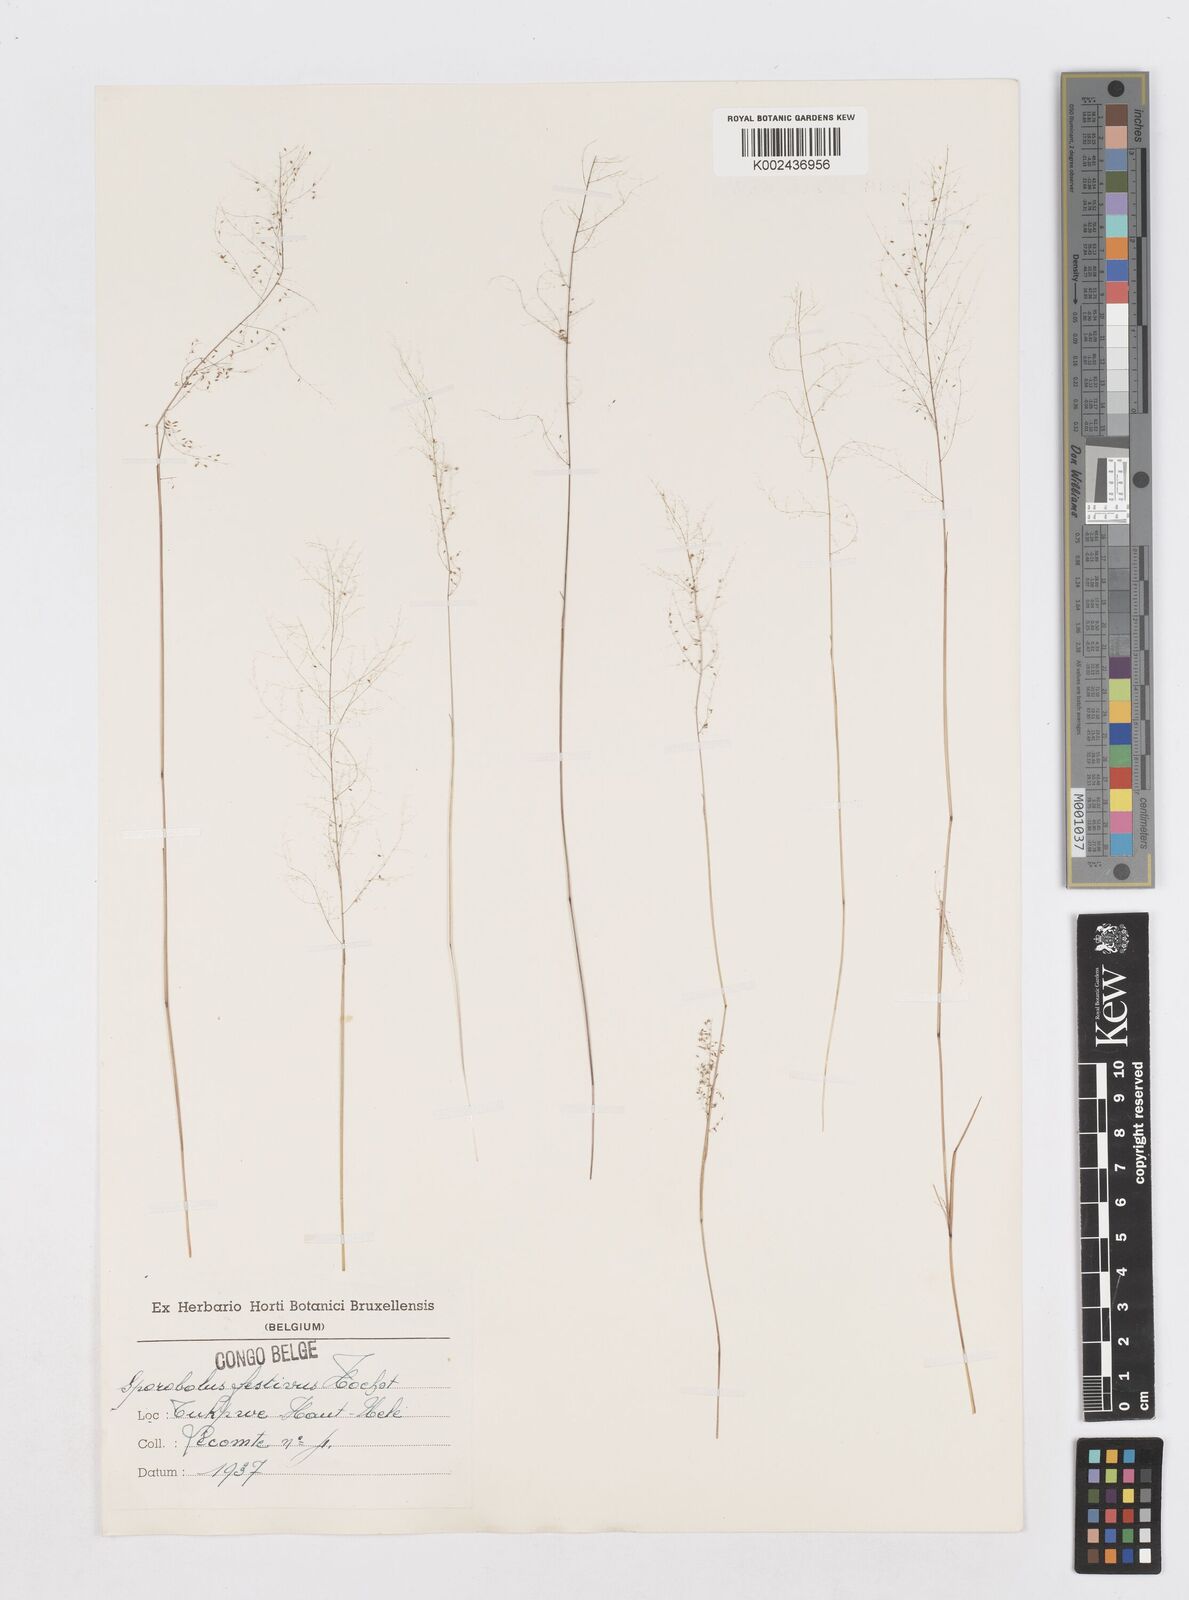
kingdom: Plantae
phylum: Tracheophyta
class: Liliopsida
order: Poales
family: Poaceae
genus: Sporobolus
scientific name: Sporobolus festivus
